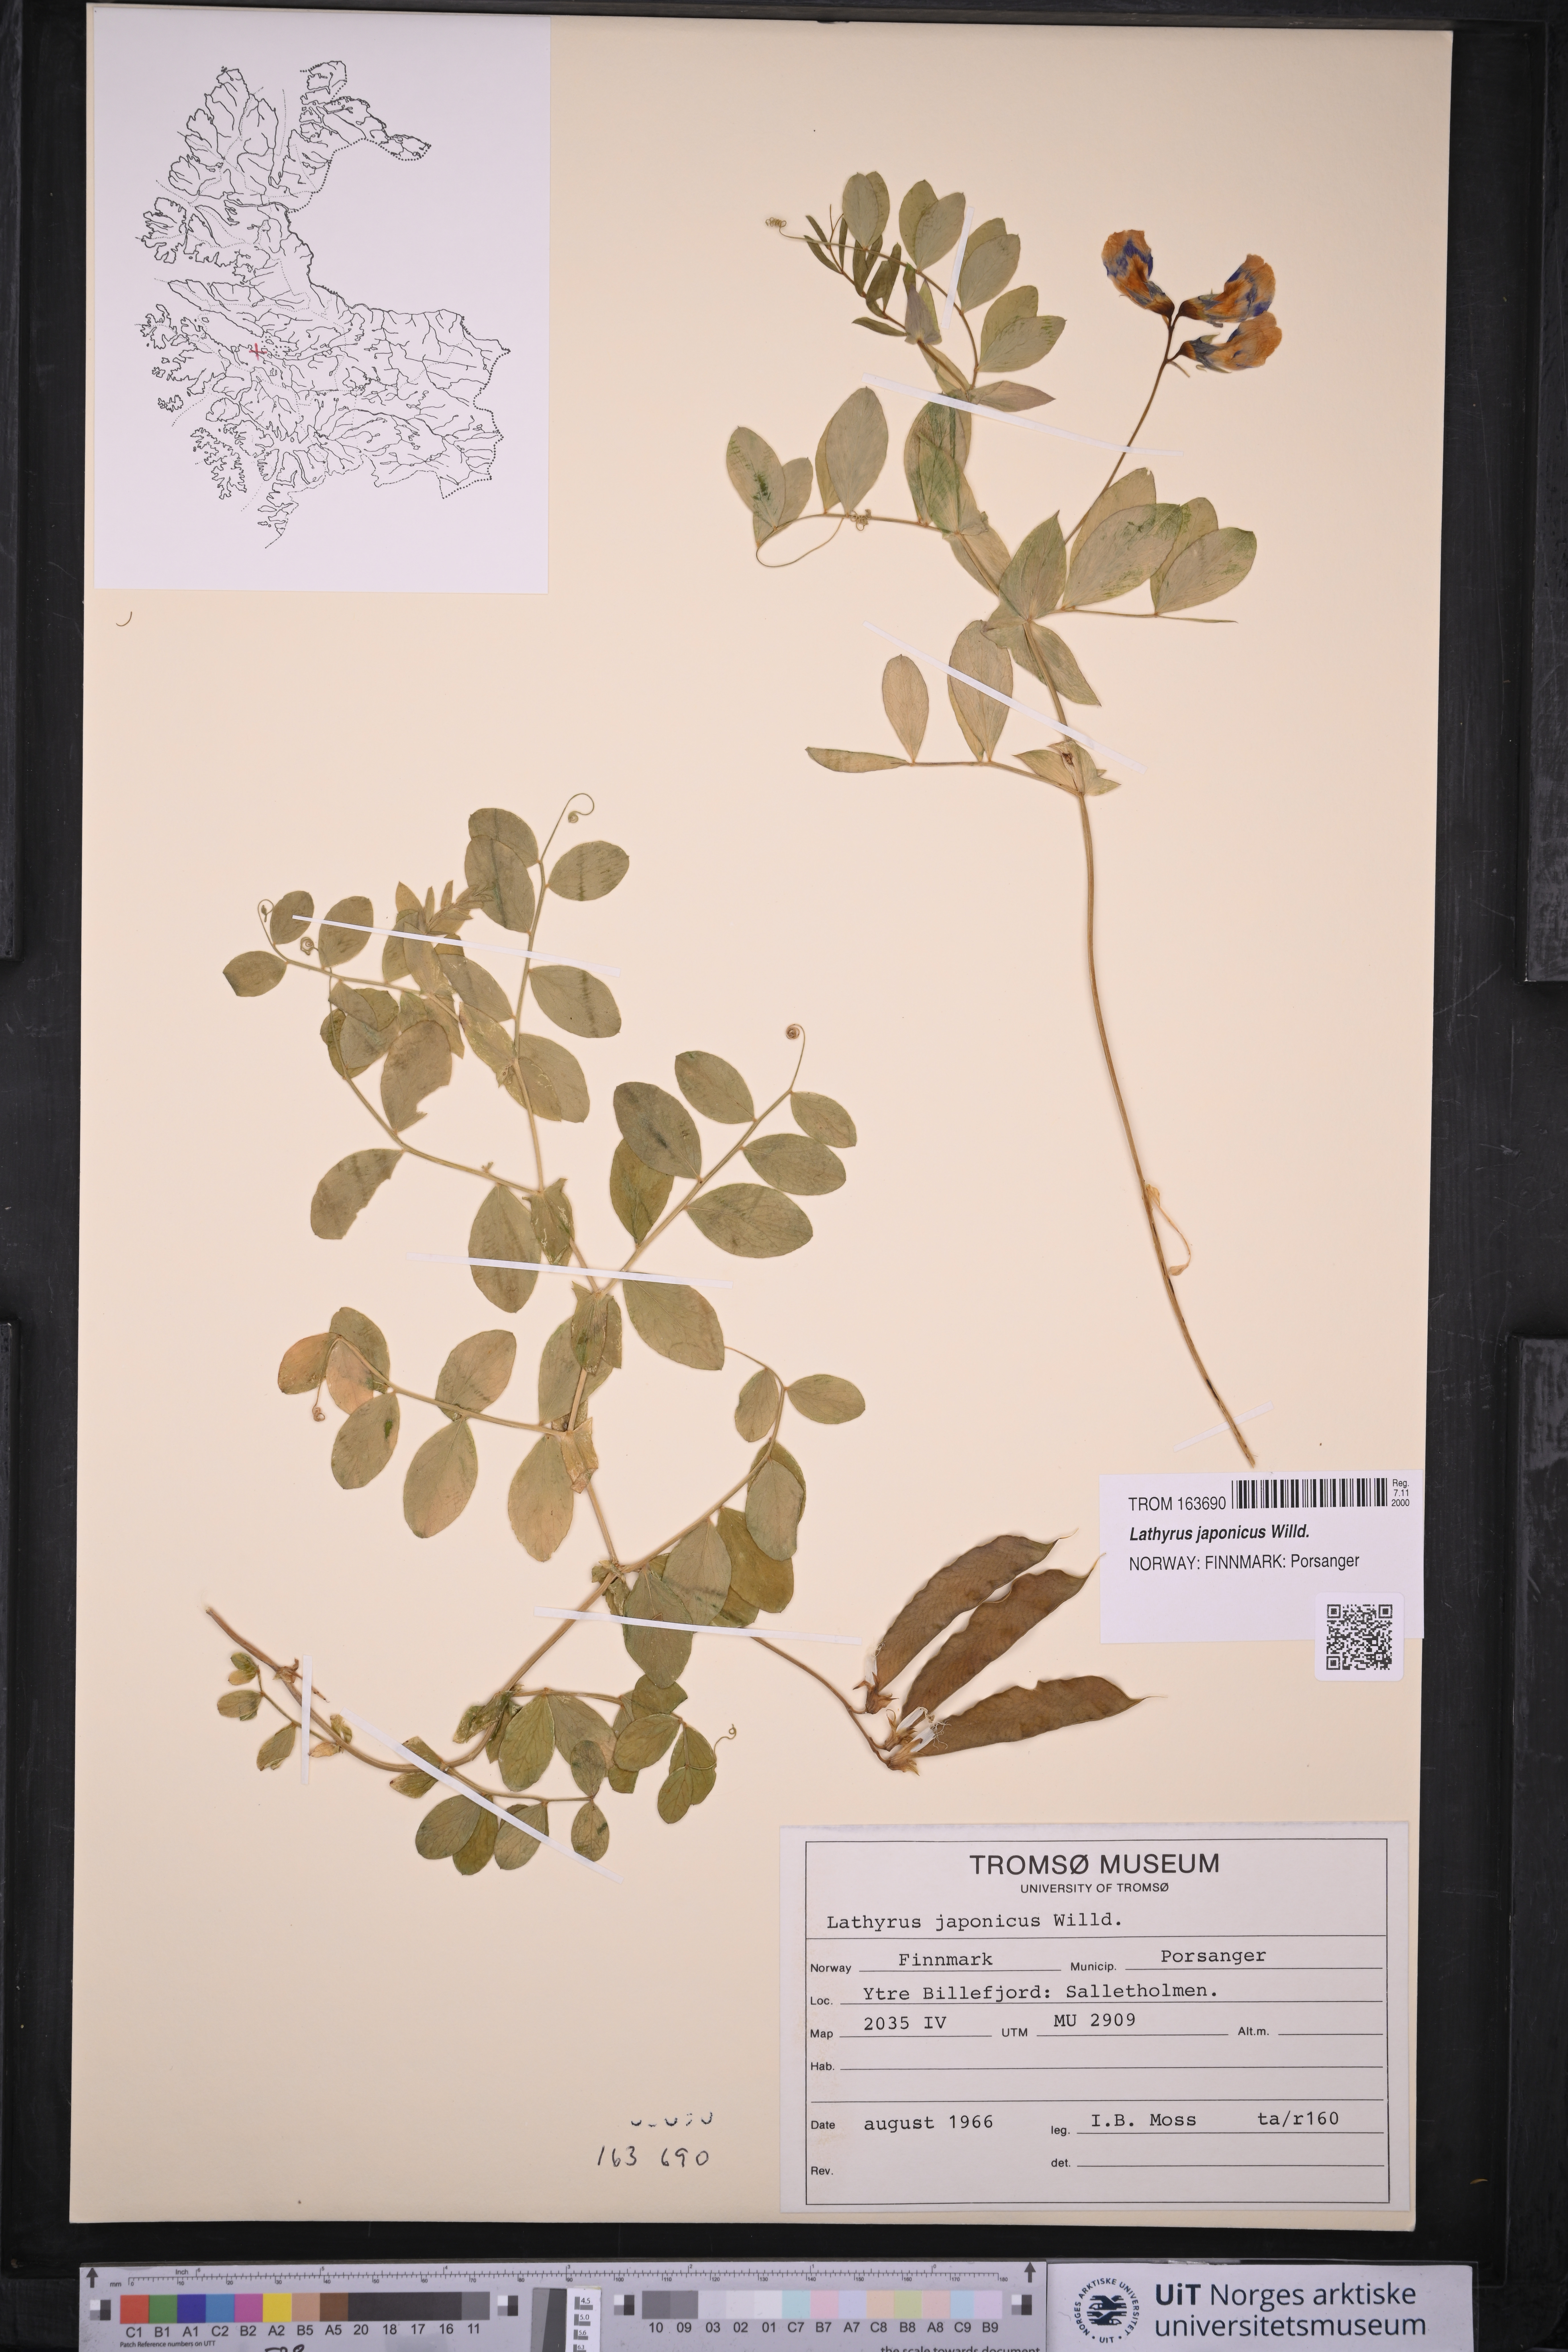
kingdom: Plantae
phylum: Tracheophyta
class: Magnoliopsida
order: Fabales
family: Fabaceae
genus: Lathyrus
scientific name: Lathyrus japonicus
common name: Sea pea
